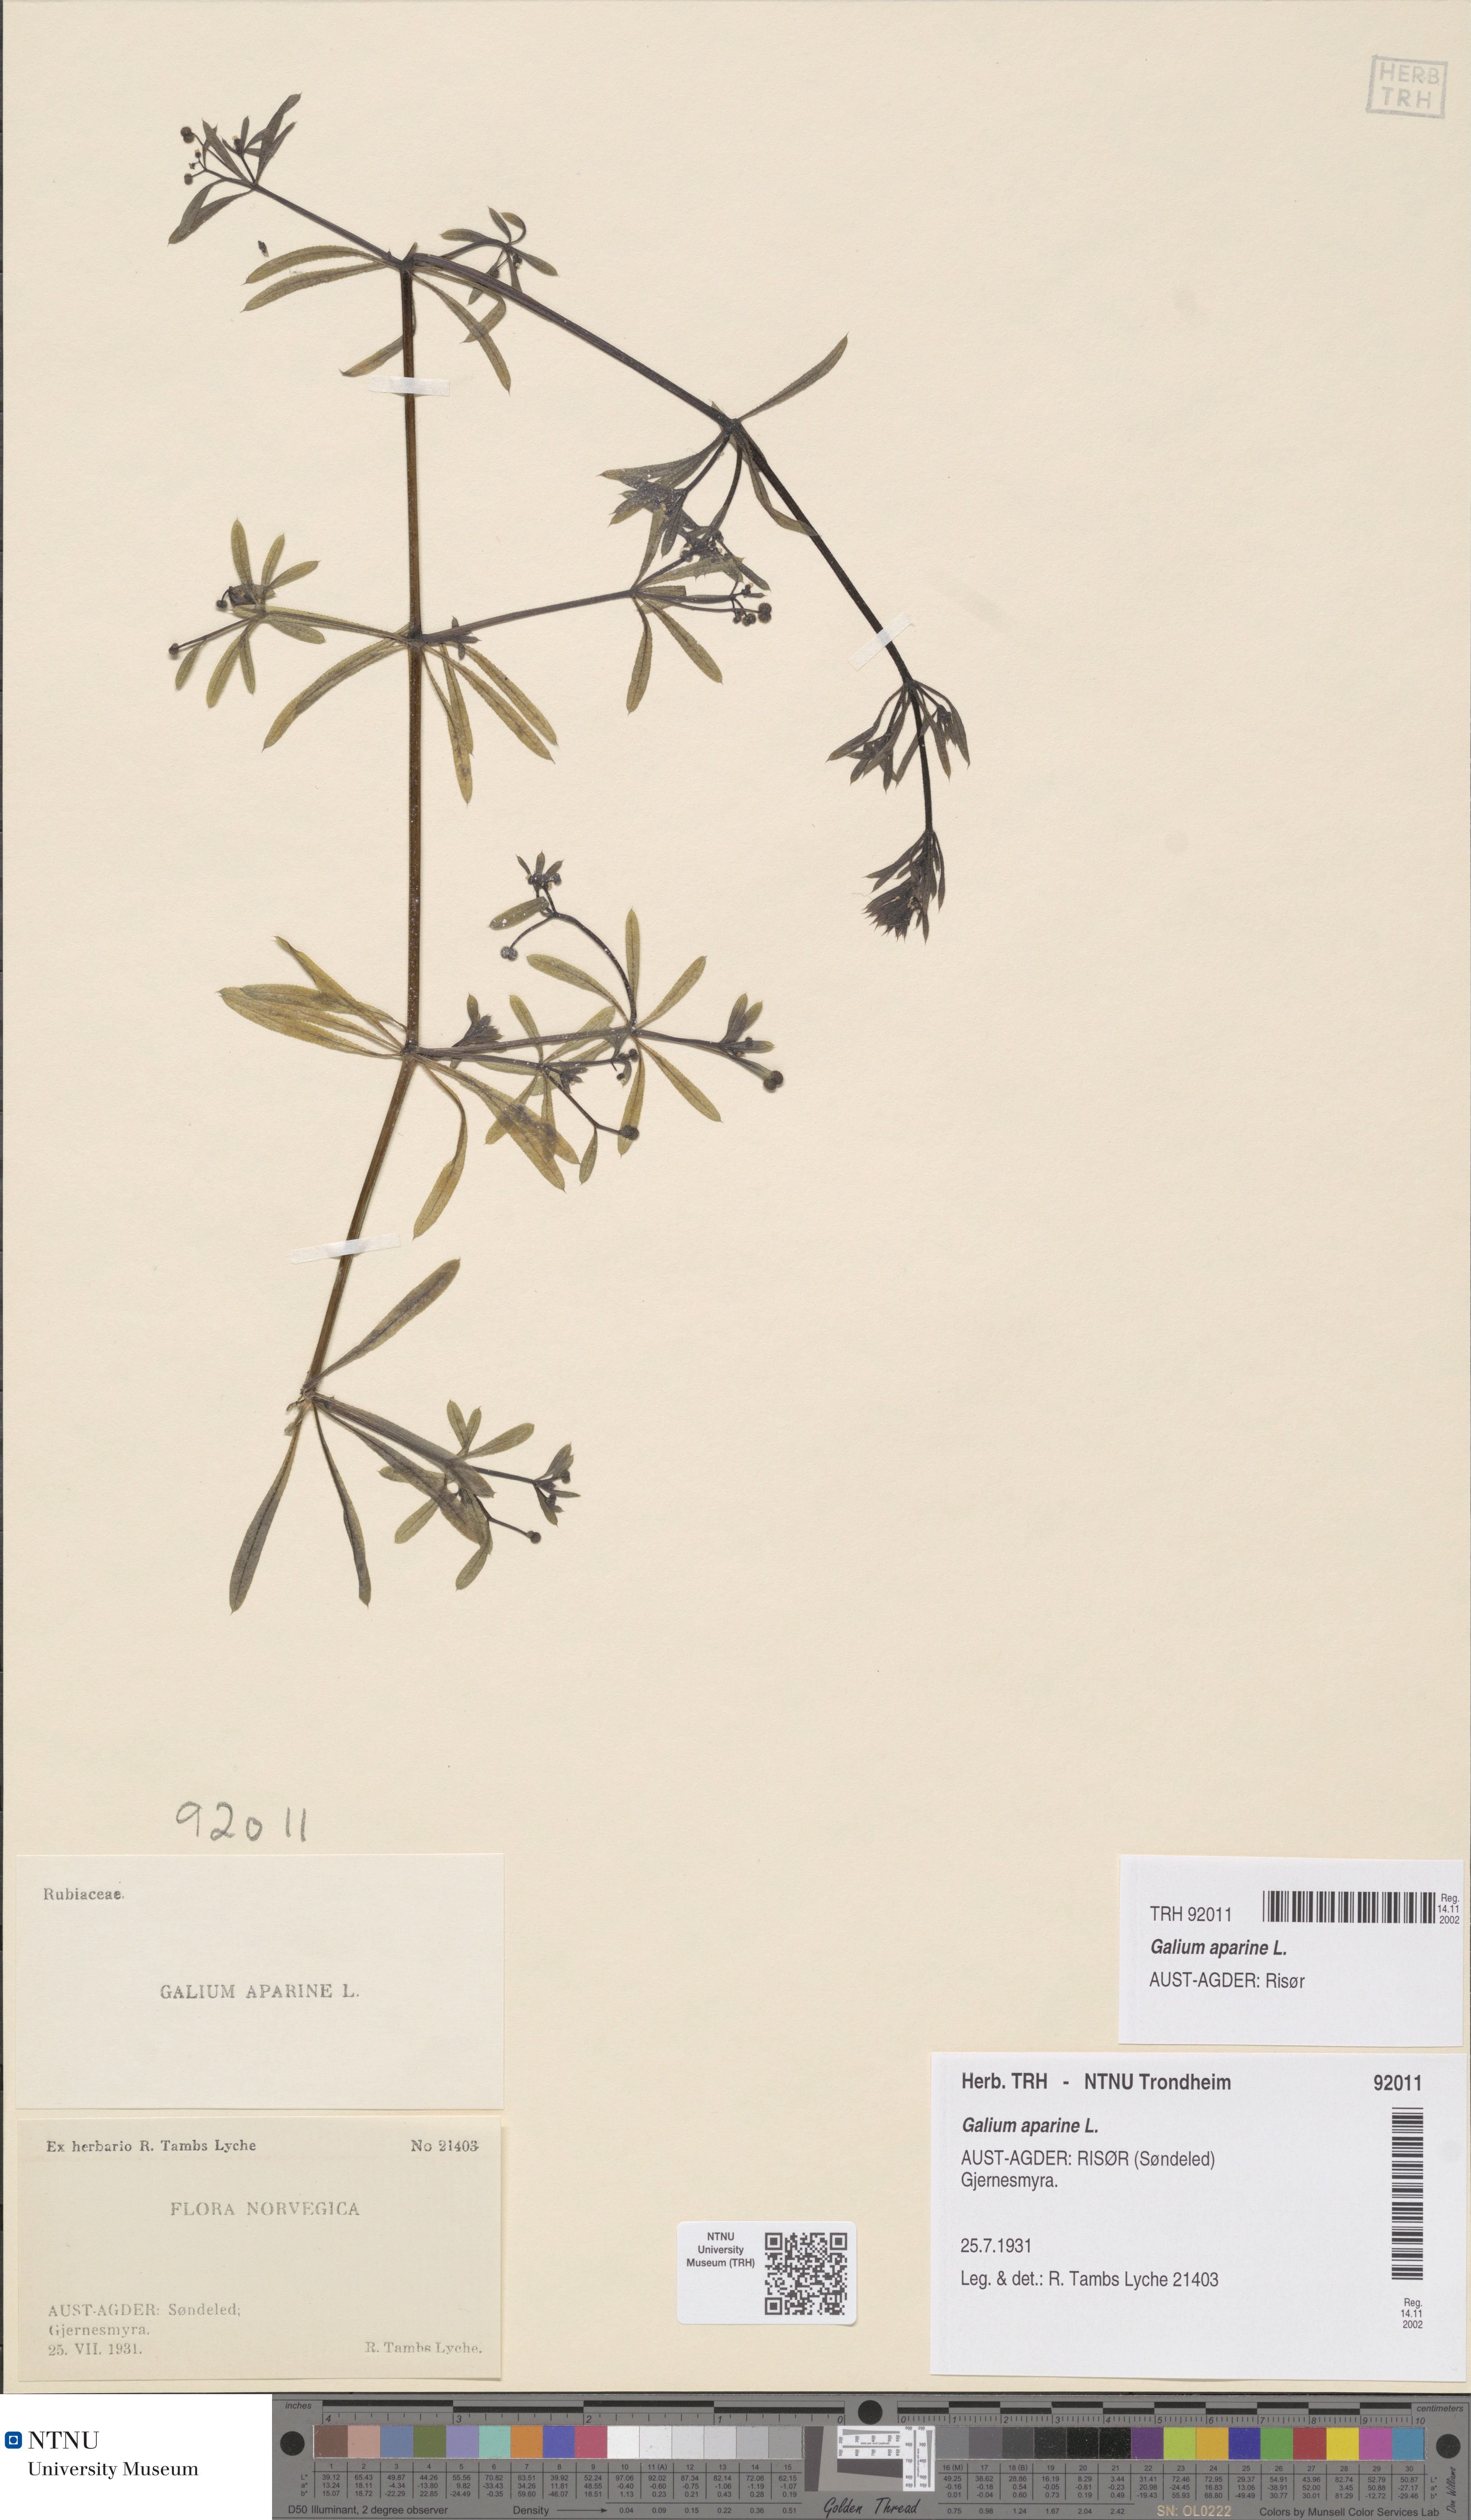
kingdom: Plantae
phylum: Tracheophyta
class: Magnoliopsida
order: Gentianales
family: Rubiaceae
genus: Galium
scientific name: Galium aparine
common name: Cleavers
